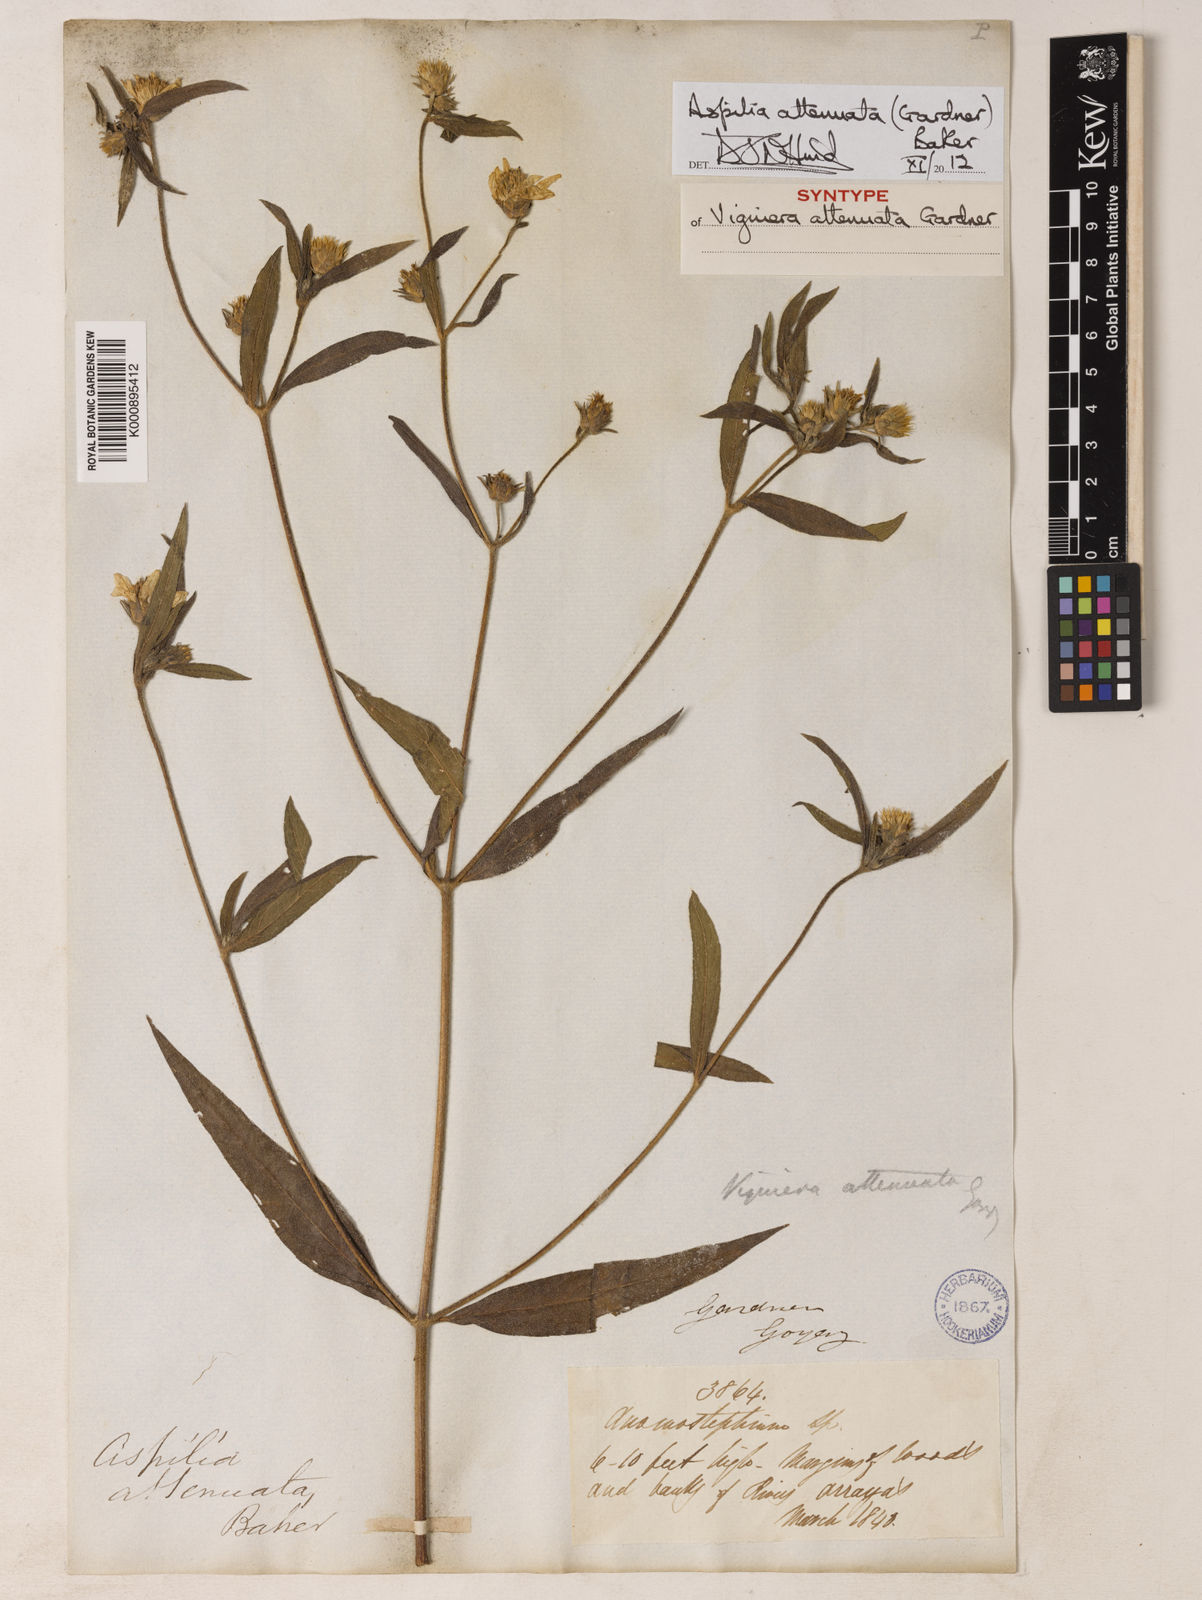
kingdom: Plantae
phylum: Tracheophyta
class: Magnoliopsida
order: Asterales
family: Asteraceae
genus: Wedelia
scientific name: Wedelia attenuata
